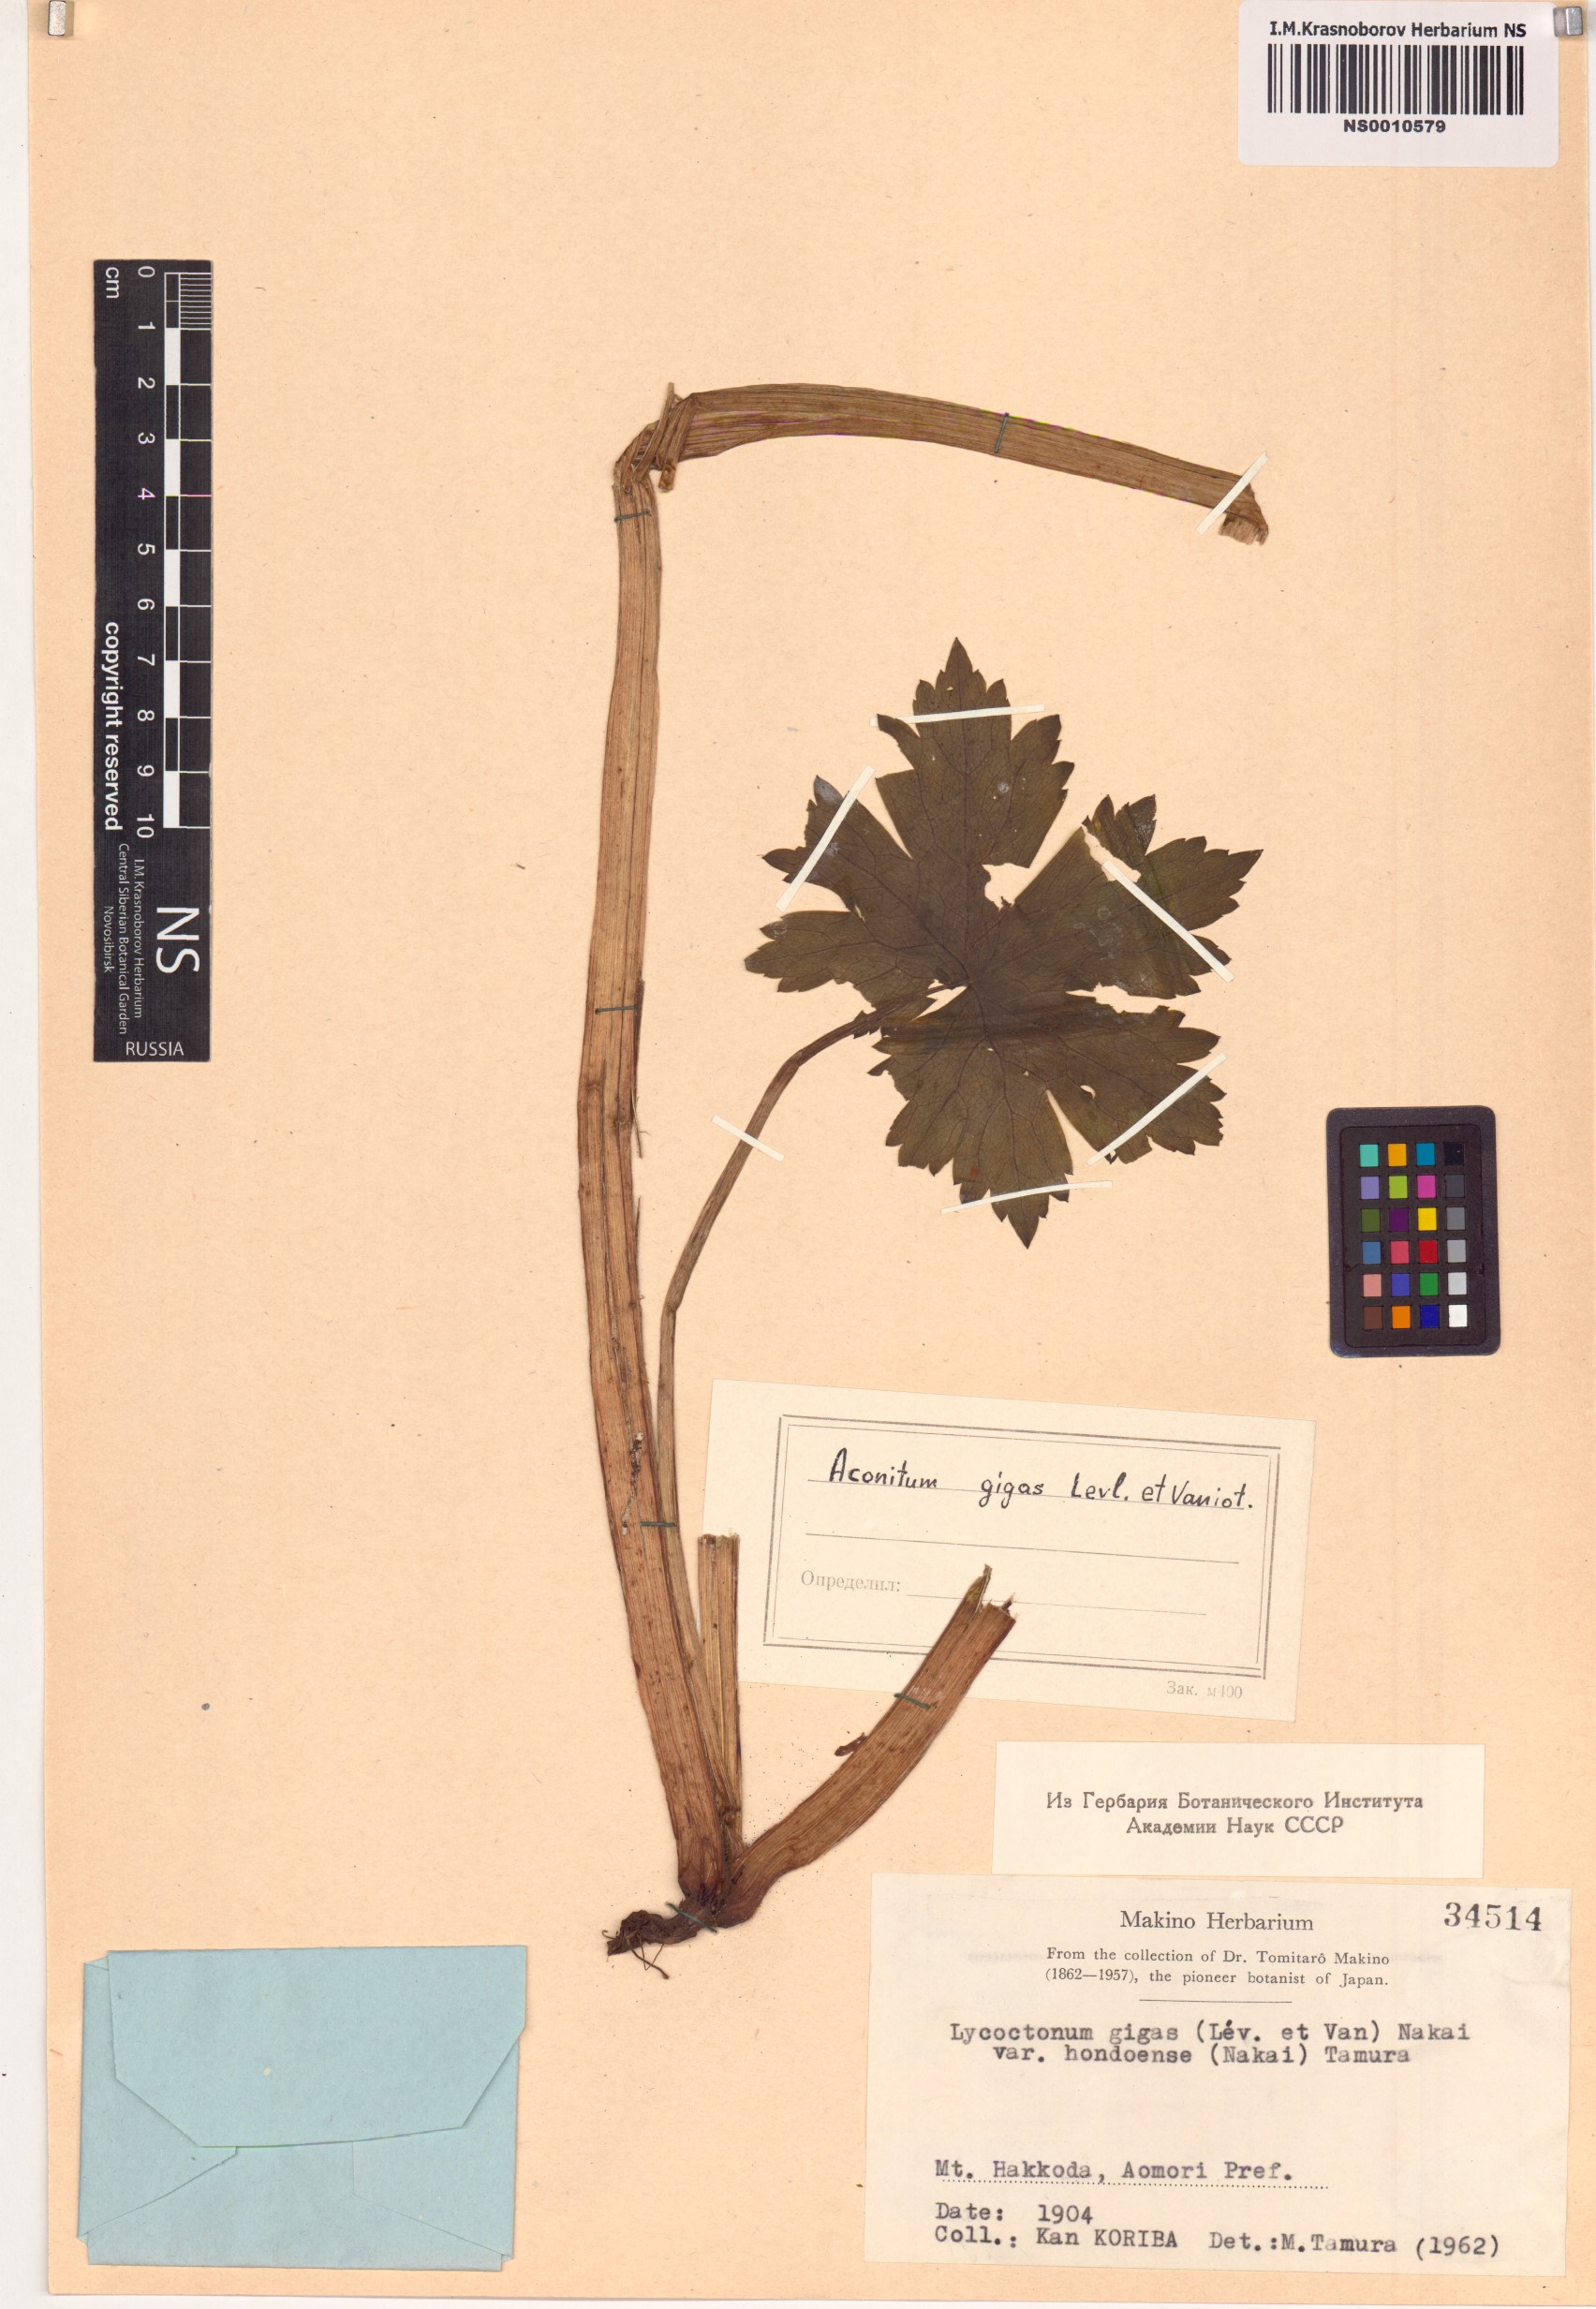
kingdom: Plantae
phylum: Tracheophyta
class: Magnoliopsida
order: Ranunculales
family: Ranunculaceae
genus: Aconitum
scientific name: Aconitum gigas
